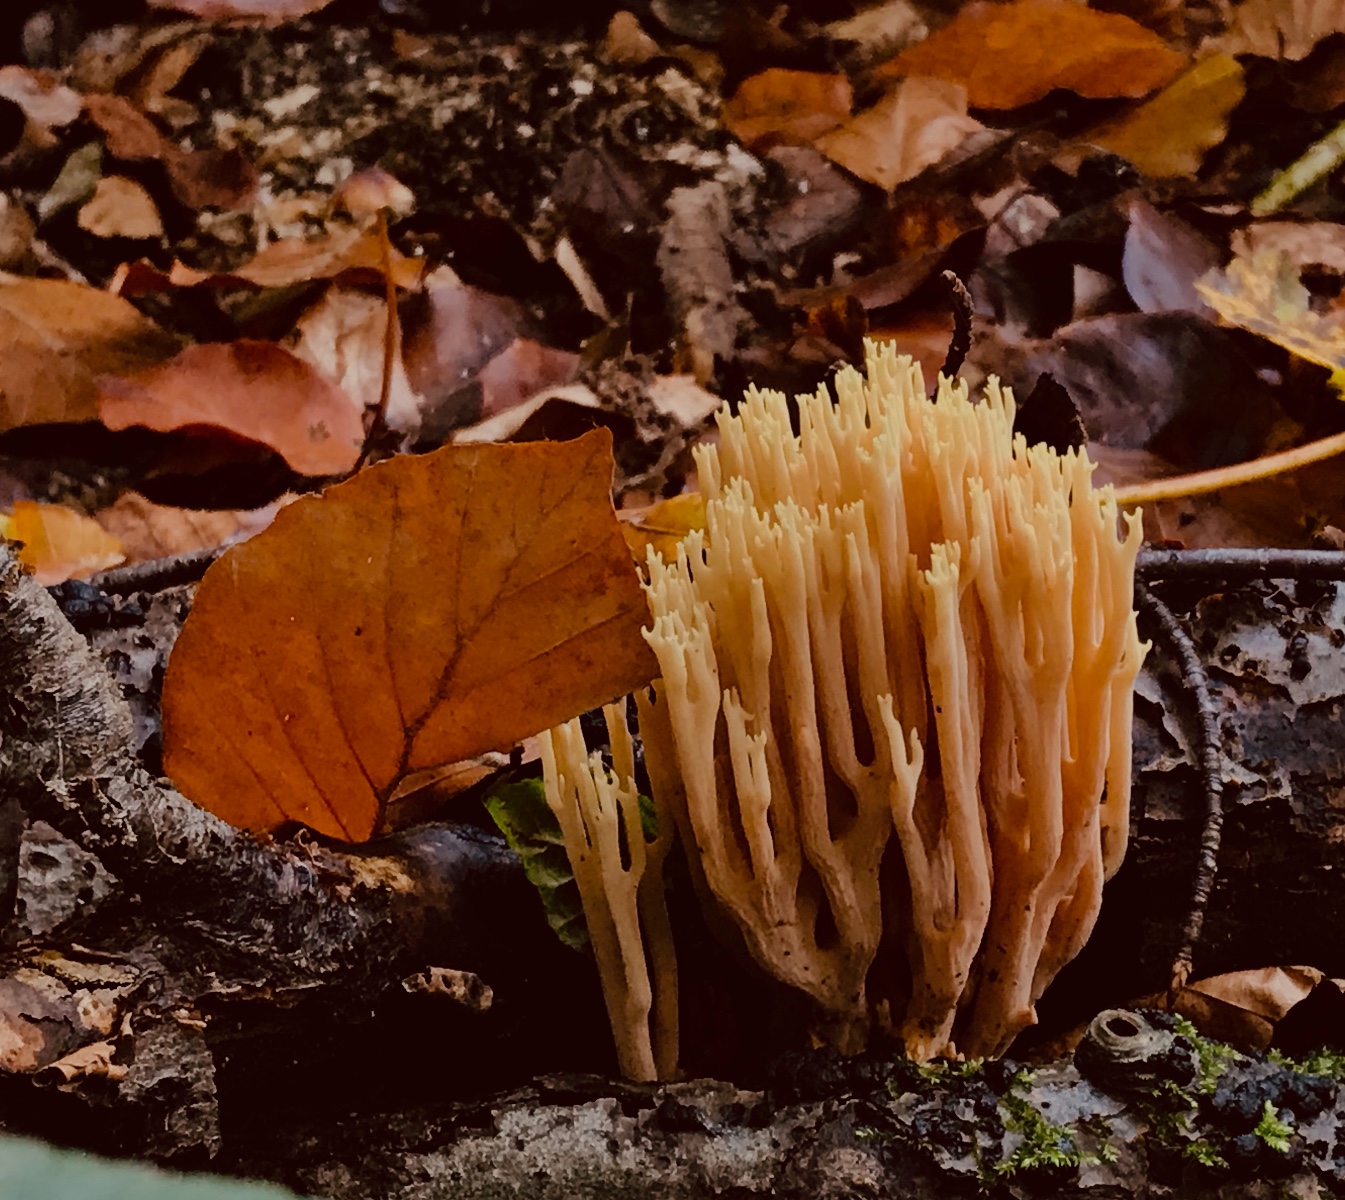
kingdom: Fungi
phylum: Basidiomycota
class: Agaricomycetes
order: Gomphales
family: Gomphaceae
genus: Ramaria
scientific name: Ramaria stricta
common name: rank koralsvamp
